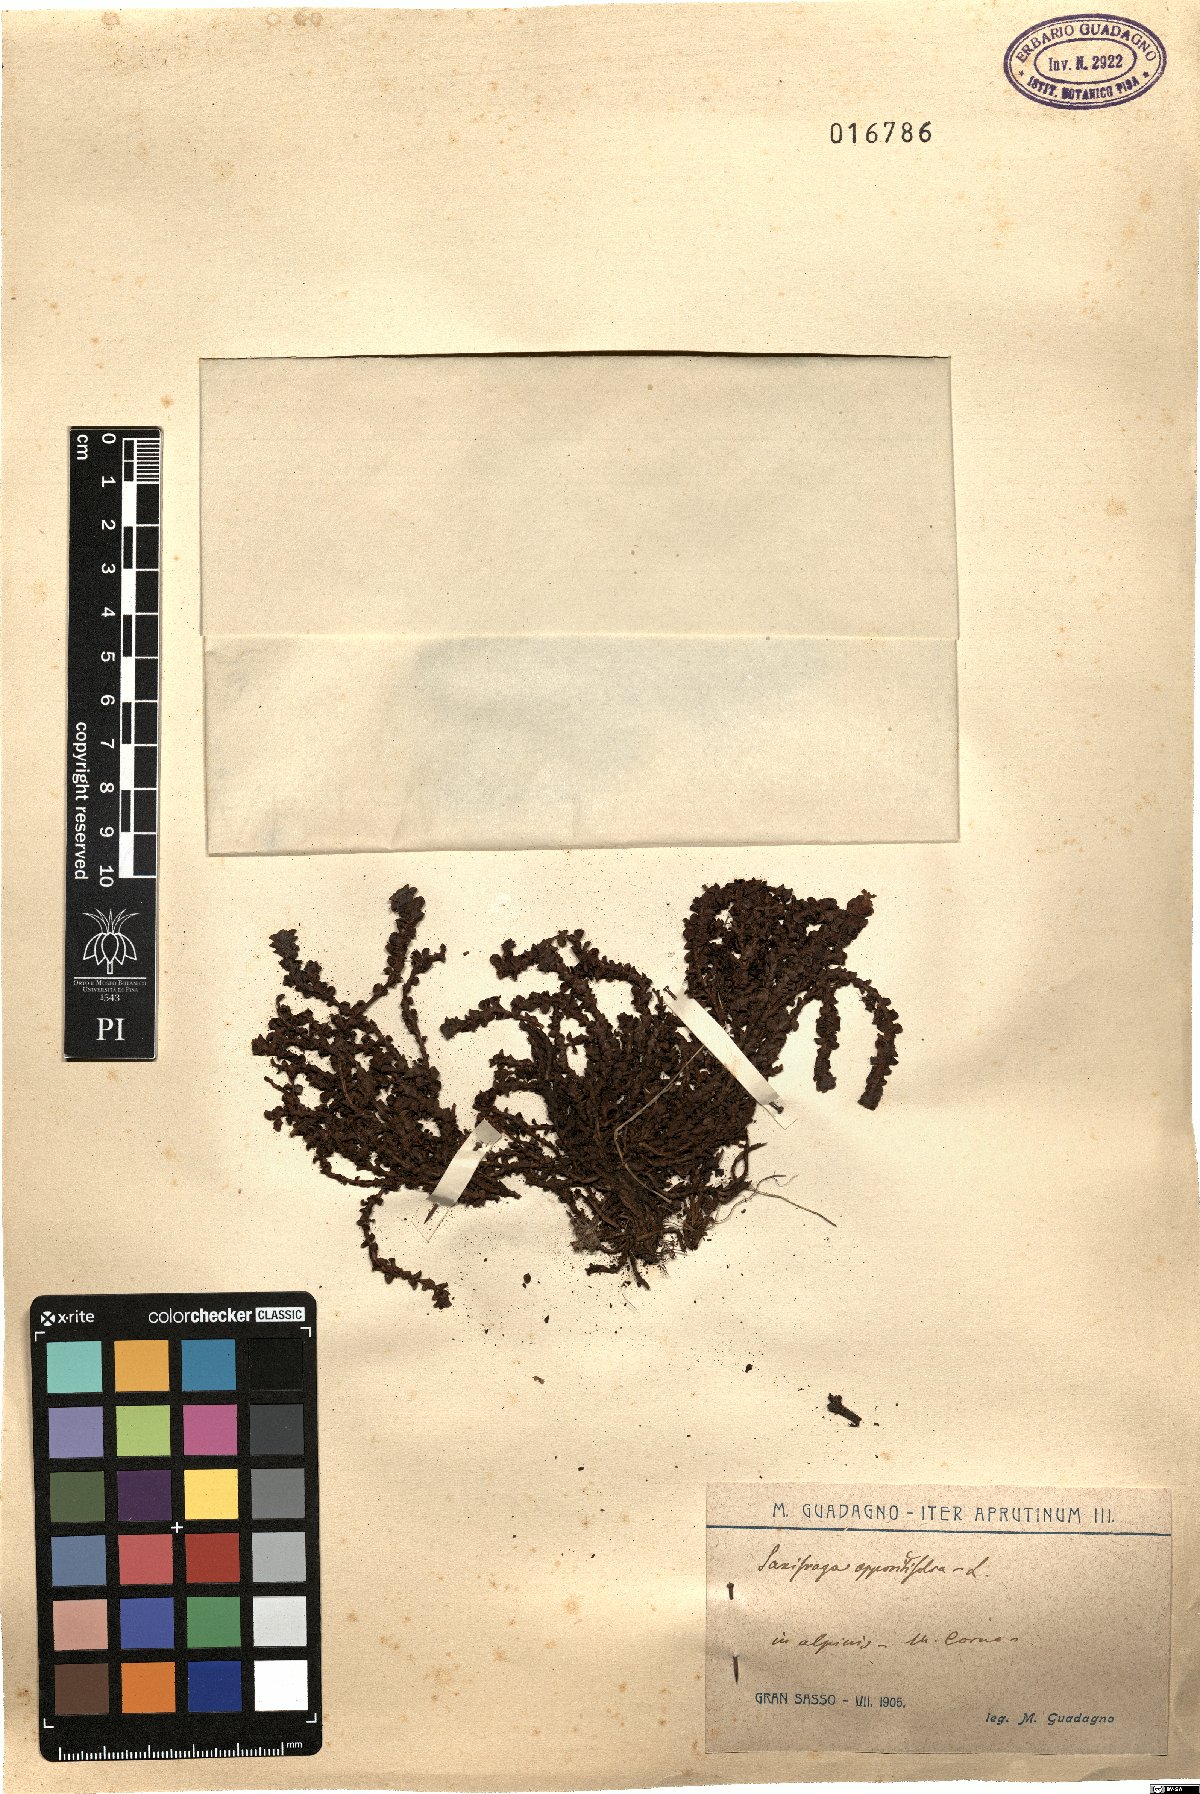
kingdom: Plantae
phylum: Tracheophyta
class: Magnoliopsida
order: Saxifragales
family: Saxifragaceae
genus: Saxifraga
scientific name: Saxifraga oppositifolia
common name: Purple saxifrage
